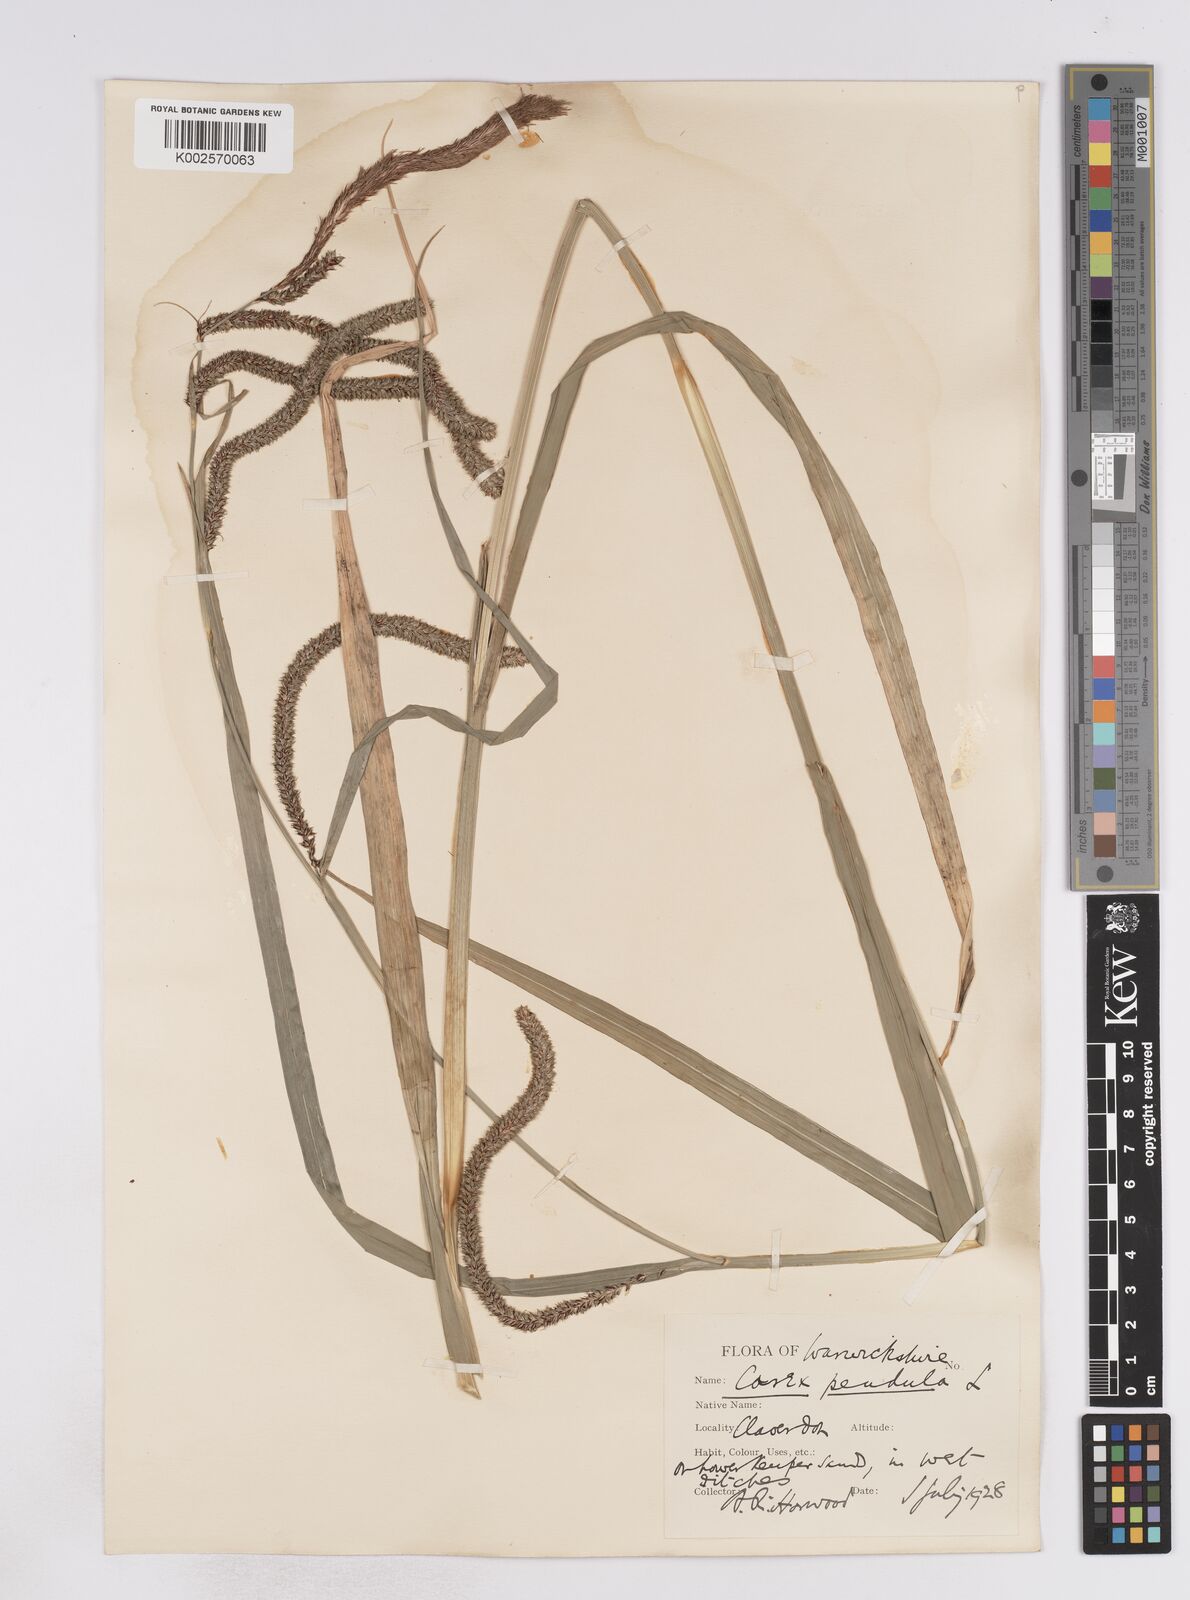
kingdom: Plantae
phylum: Tracheophyta
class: Liliopsida
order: Poales
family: Cyperaceae
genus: Carex
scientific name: Carex pendula
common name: Pendulous sedge
